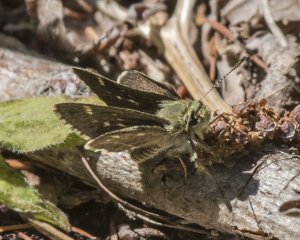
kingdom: Animalia
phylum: Arthropoda
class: Insecta
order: Lepidoptera
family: Hesperiidae
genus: Mastor
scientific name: Mastor hegon
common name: Pepper and Salt Skipper
